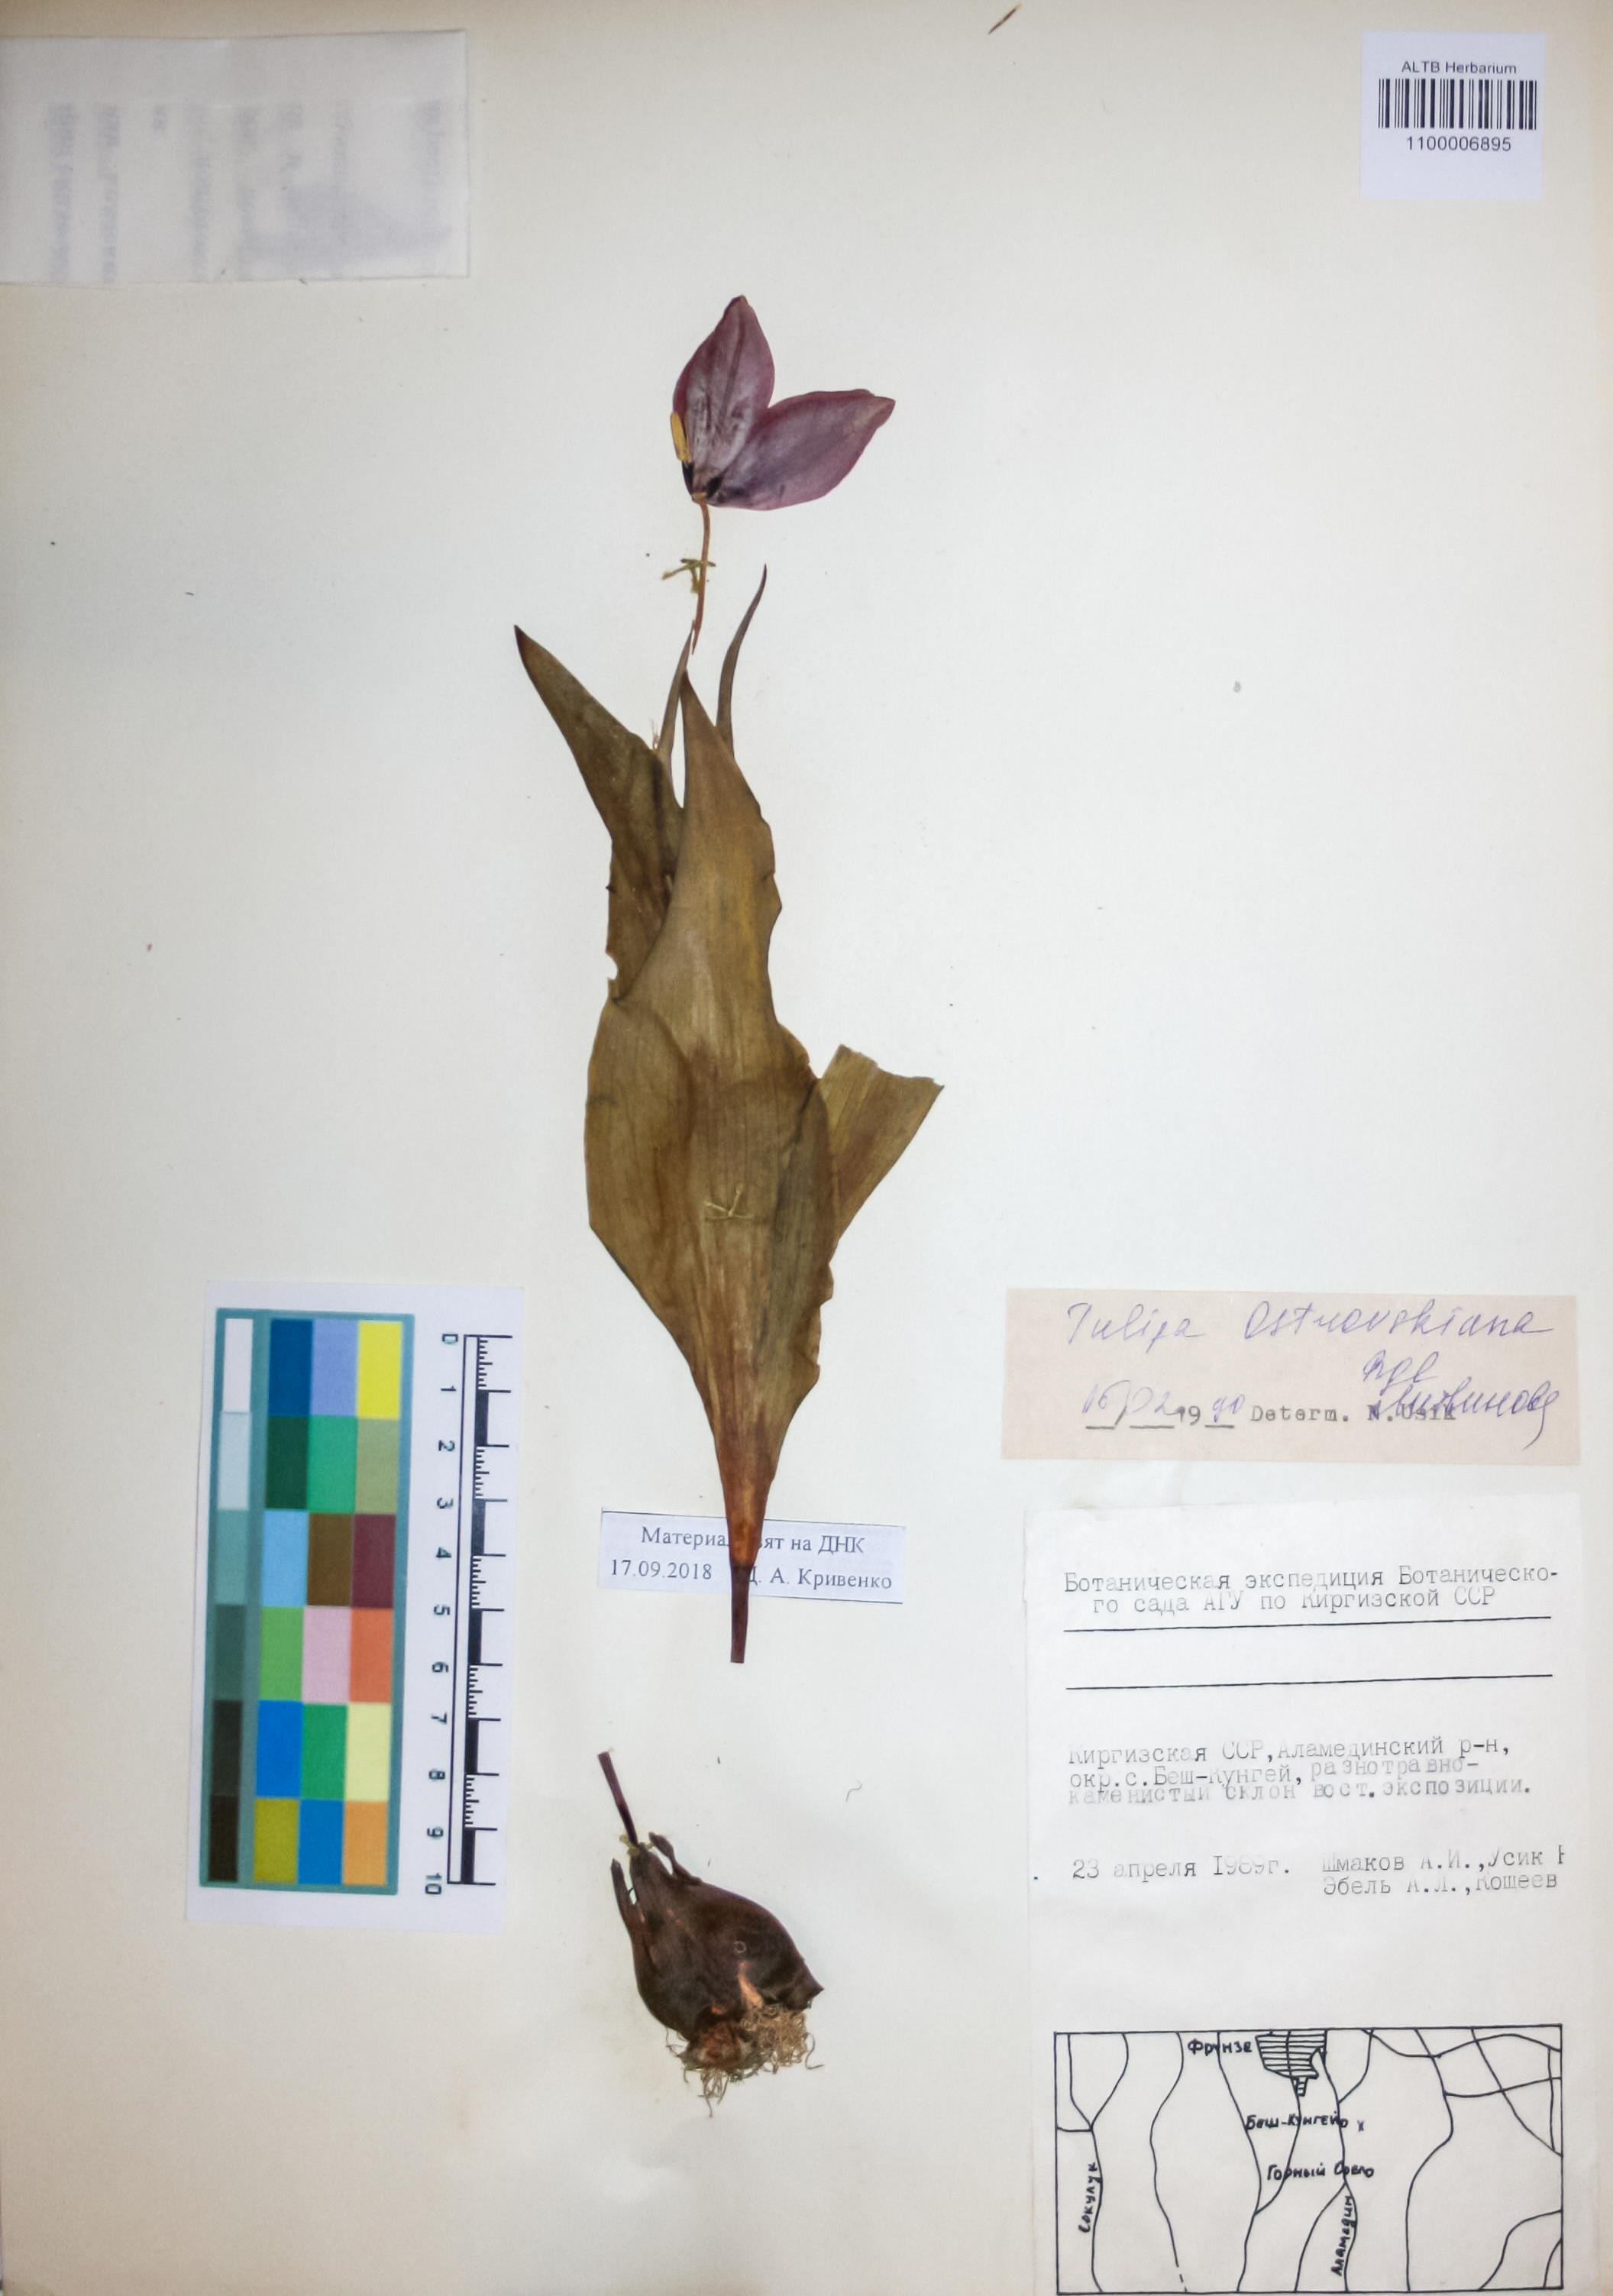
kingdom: Plantae
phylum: Tracheophyta
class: Liliopsida
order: Liliales
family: Liliaceae
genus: Tulipa
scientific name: Tulipa dubia
